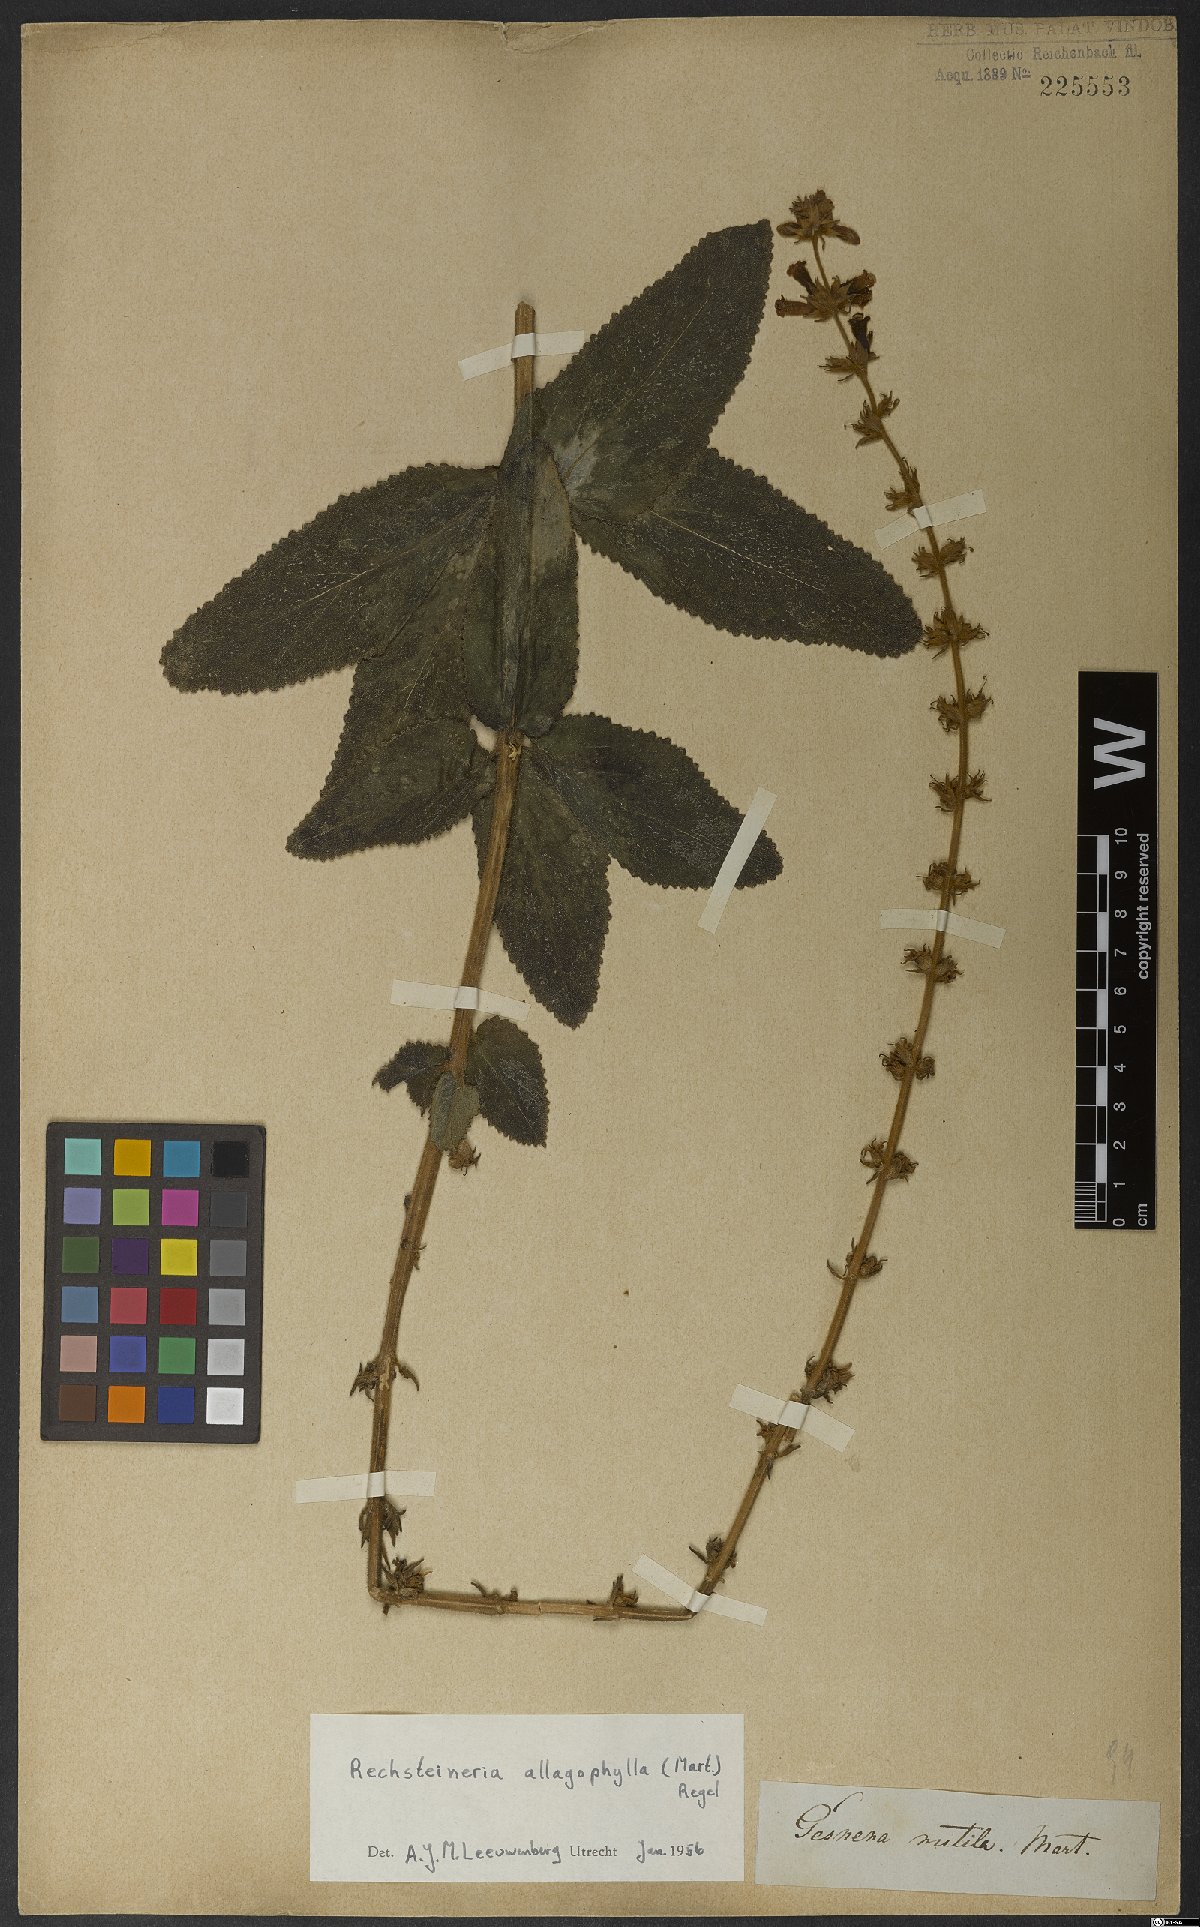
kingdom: Plantae
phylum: Tracheophyta
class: Magnoliopsida
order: Lamiales
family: Gesneriaceae
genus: Sinningia
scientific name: Sinningia allagophylla
